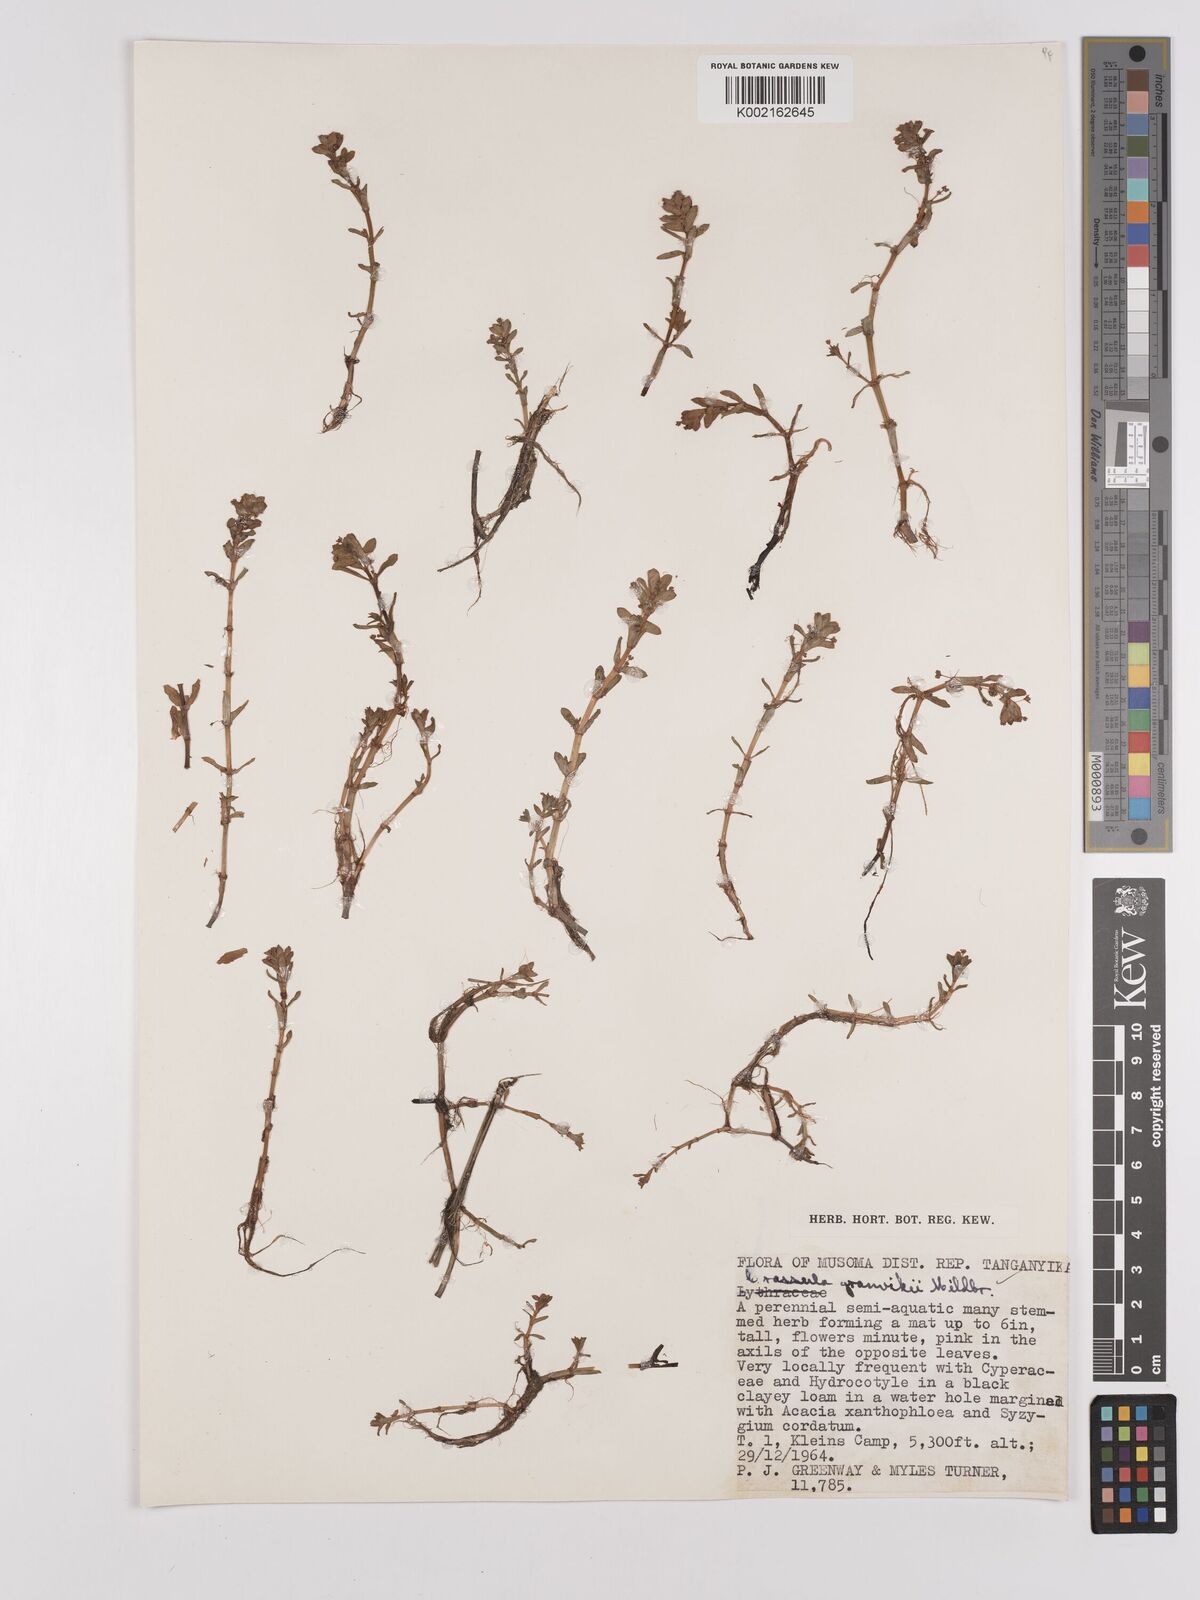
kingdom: Plantae
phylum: Tracheophyta
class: Magnoliopsida
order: Saxifragales
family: Crassulaceae
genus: Crassula
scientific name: Crassula granvikii
